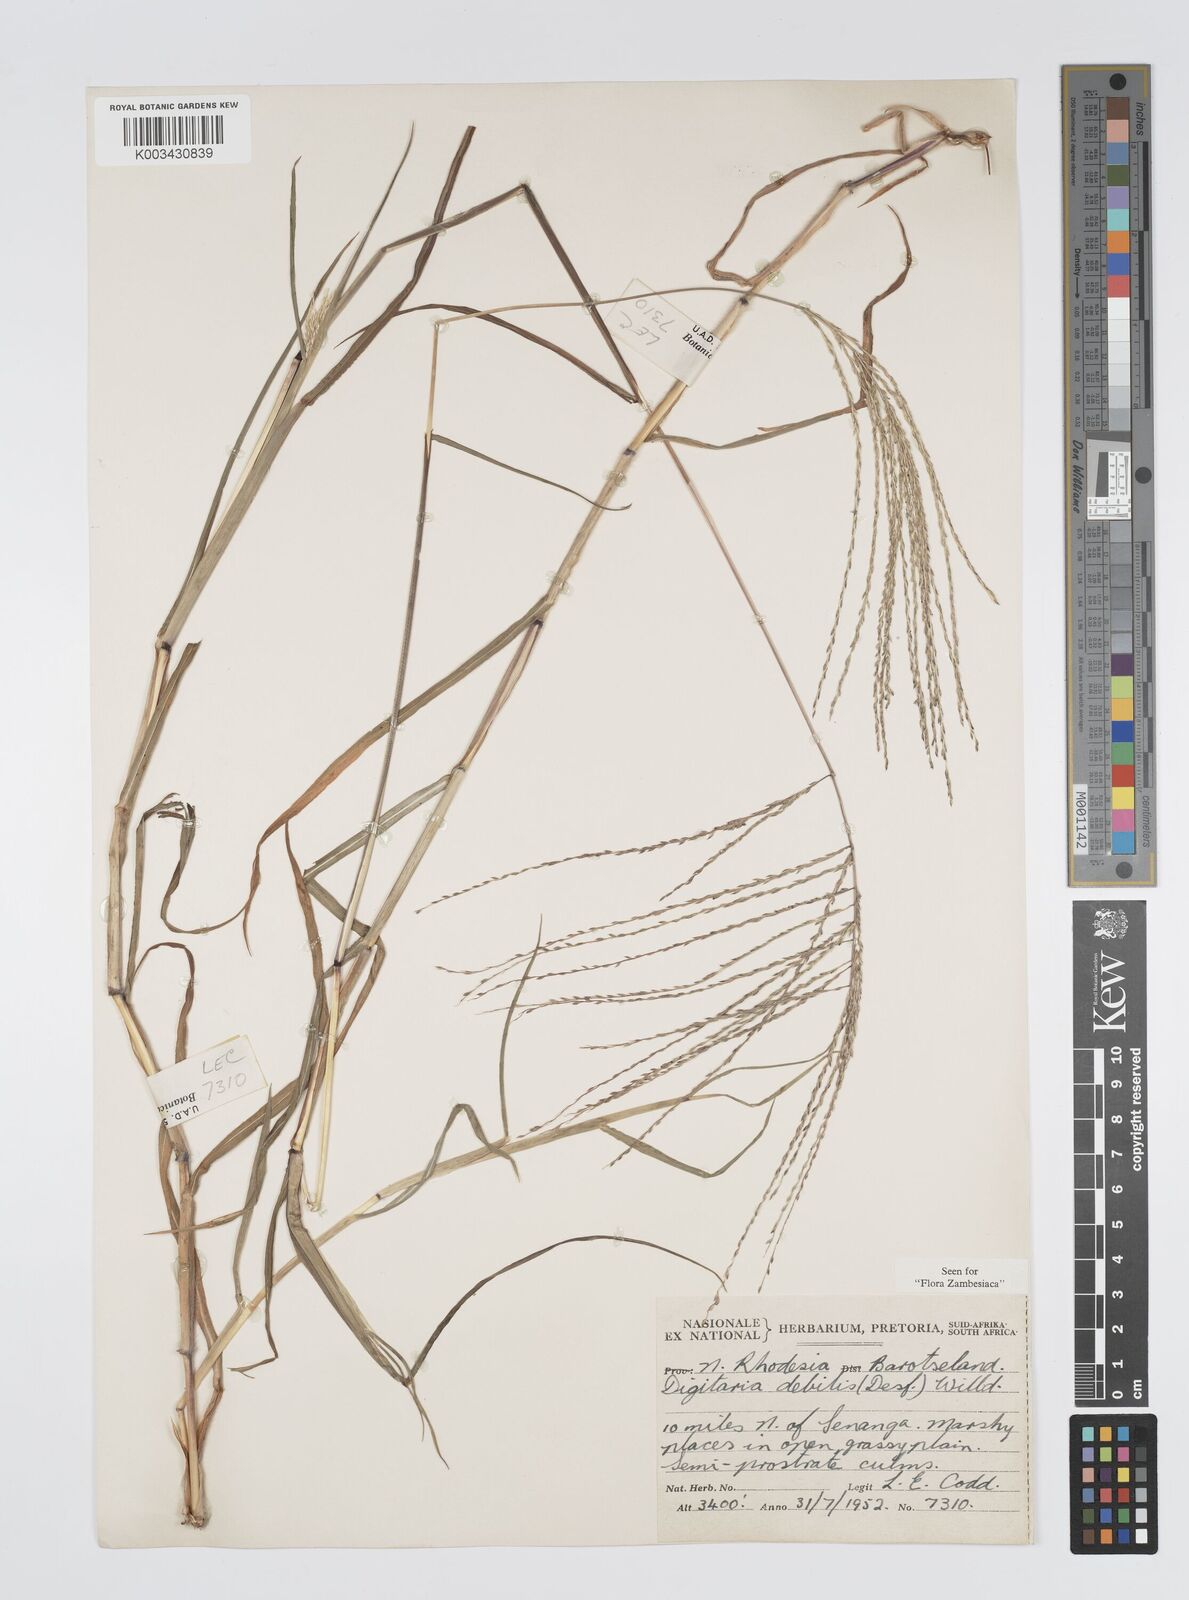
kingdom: Plantae
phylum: Tracheophyta
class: Liliopsida
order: Poales
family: Poaceae
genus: Digitaria
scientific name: Digitaria debilis
